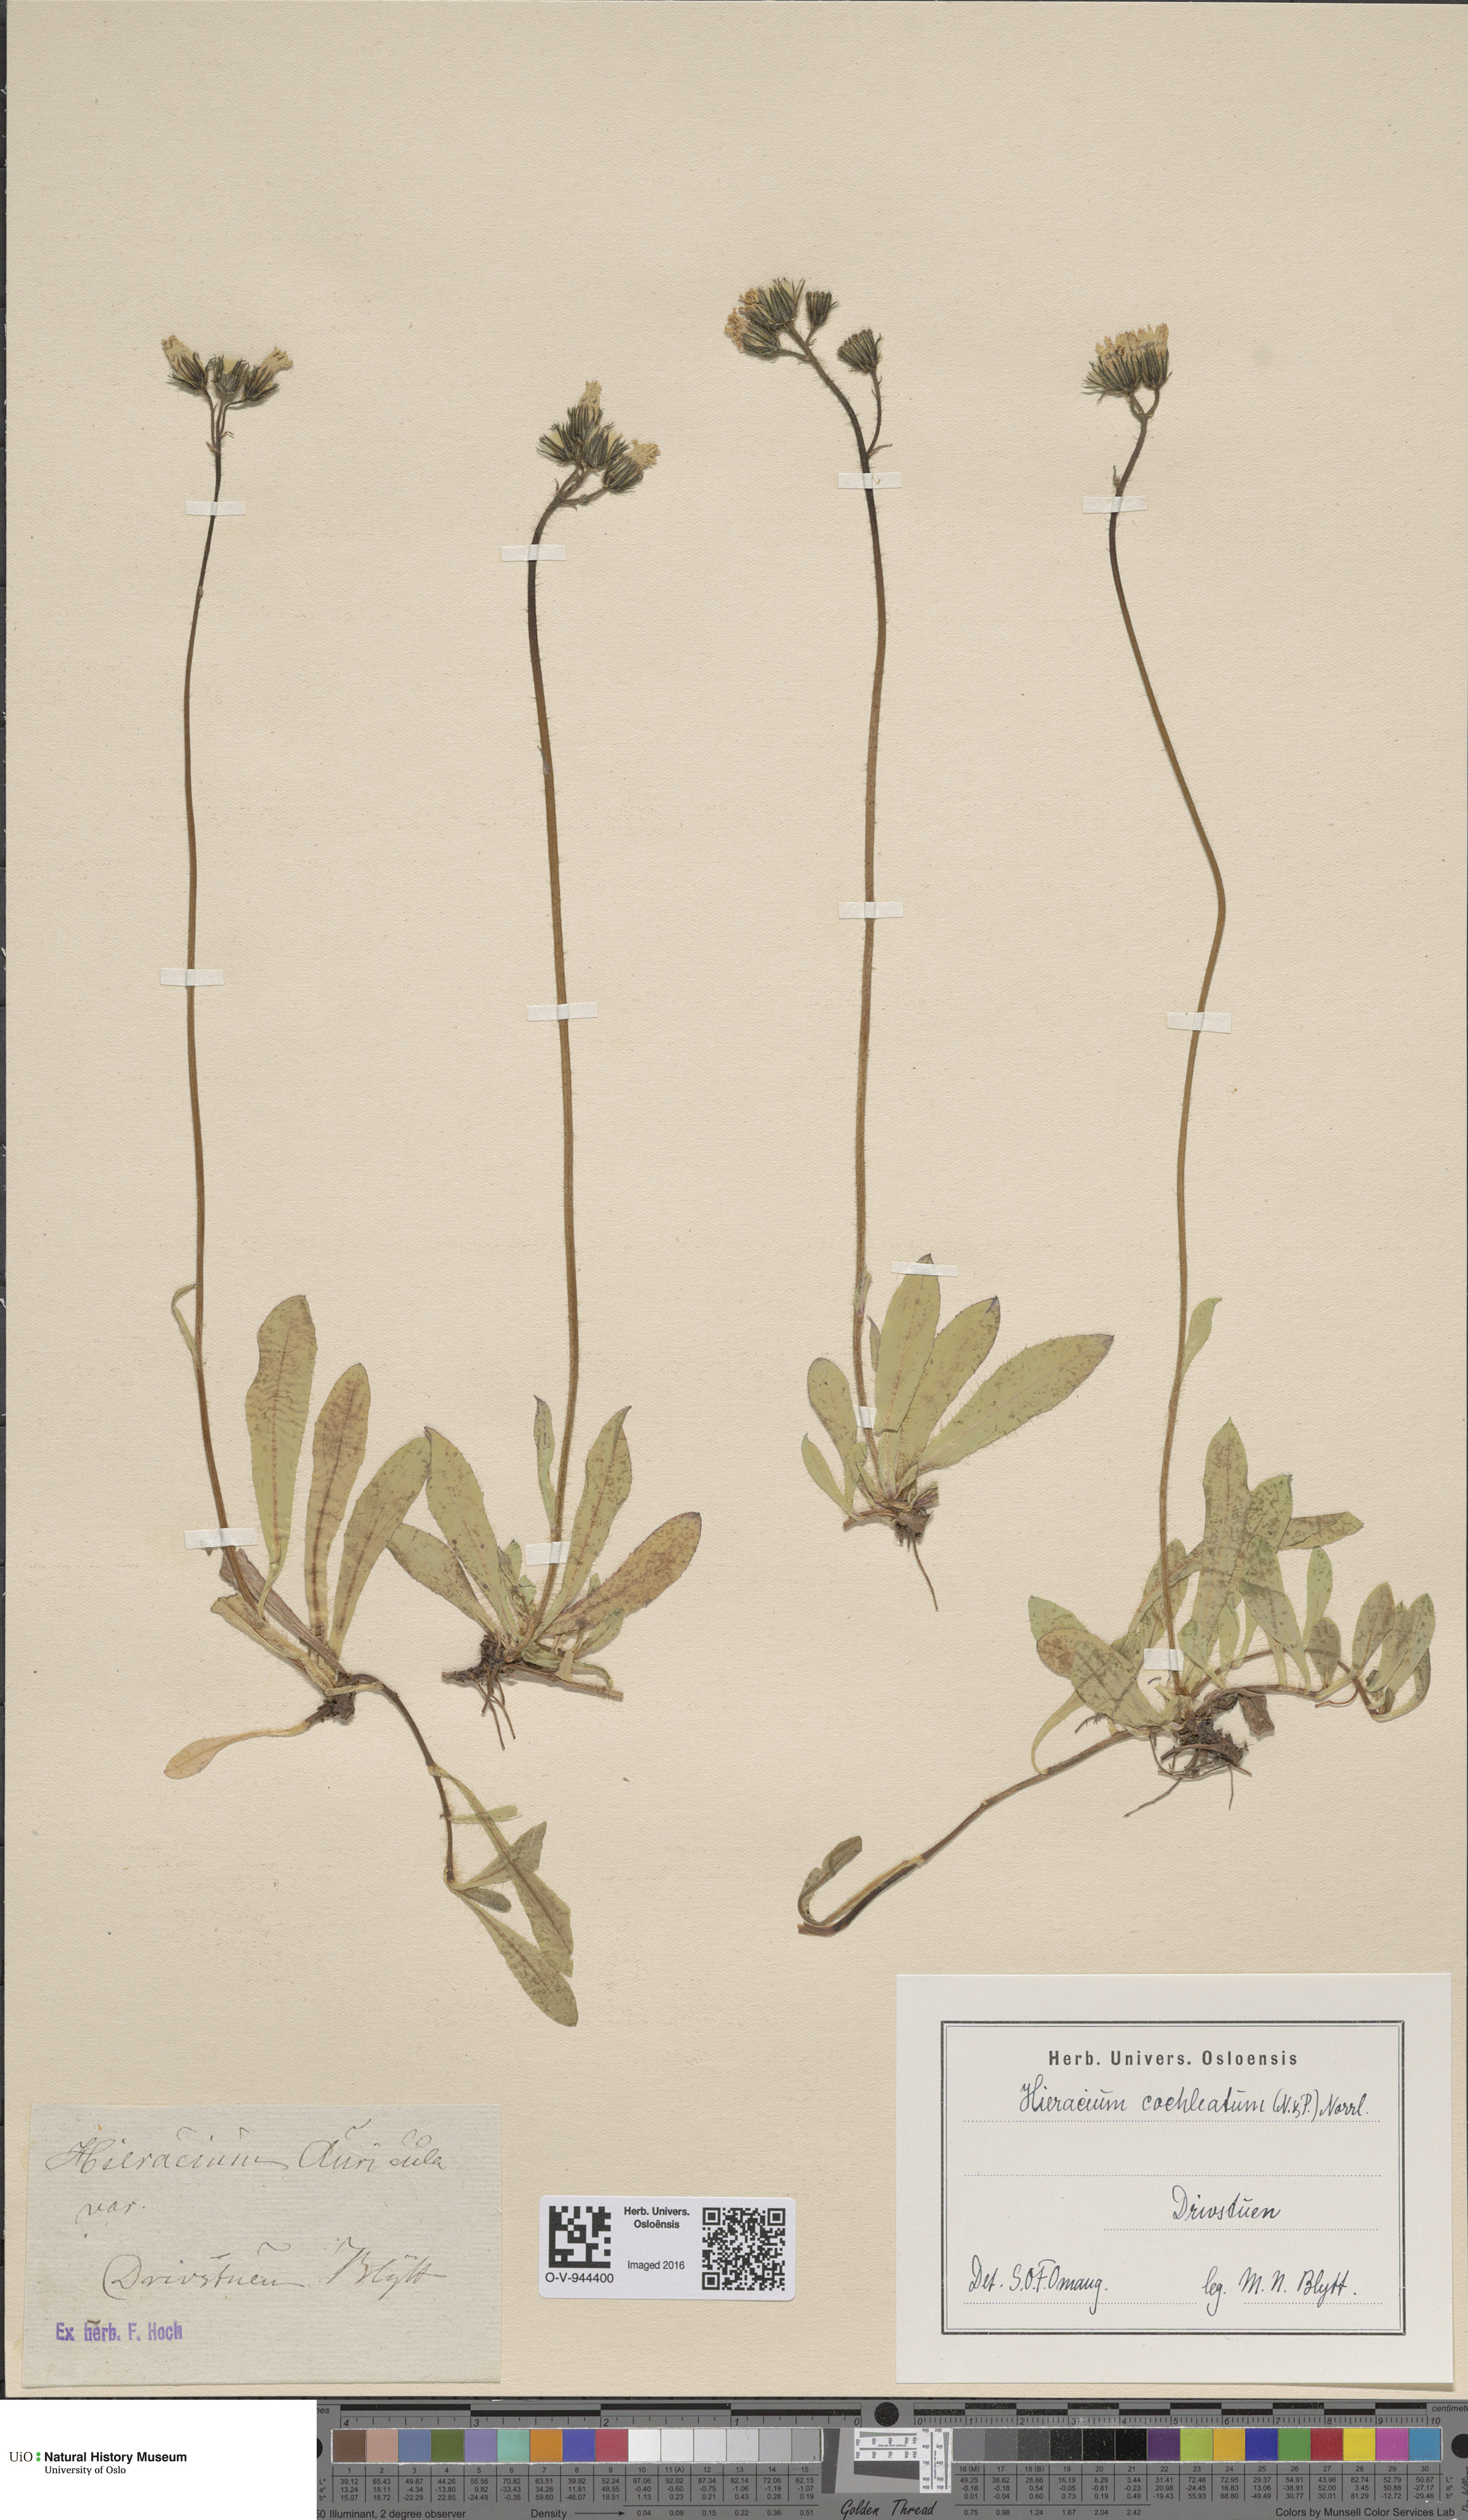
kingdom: Plantae
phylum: Tracheophyta
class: Magnoliopsida
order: Asterales
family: Asteraceae
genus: Pilosella
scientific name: Pilosella floribunda
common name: Glaucous hawkweed
